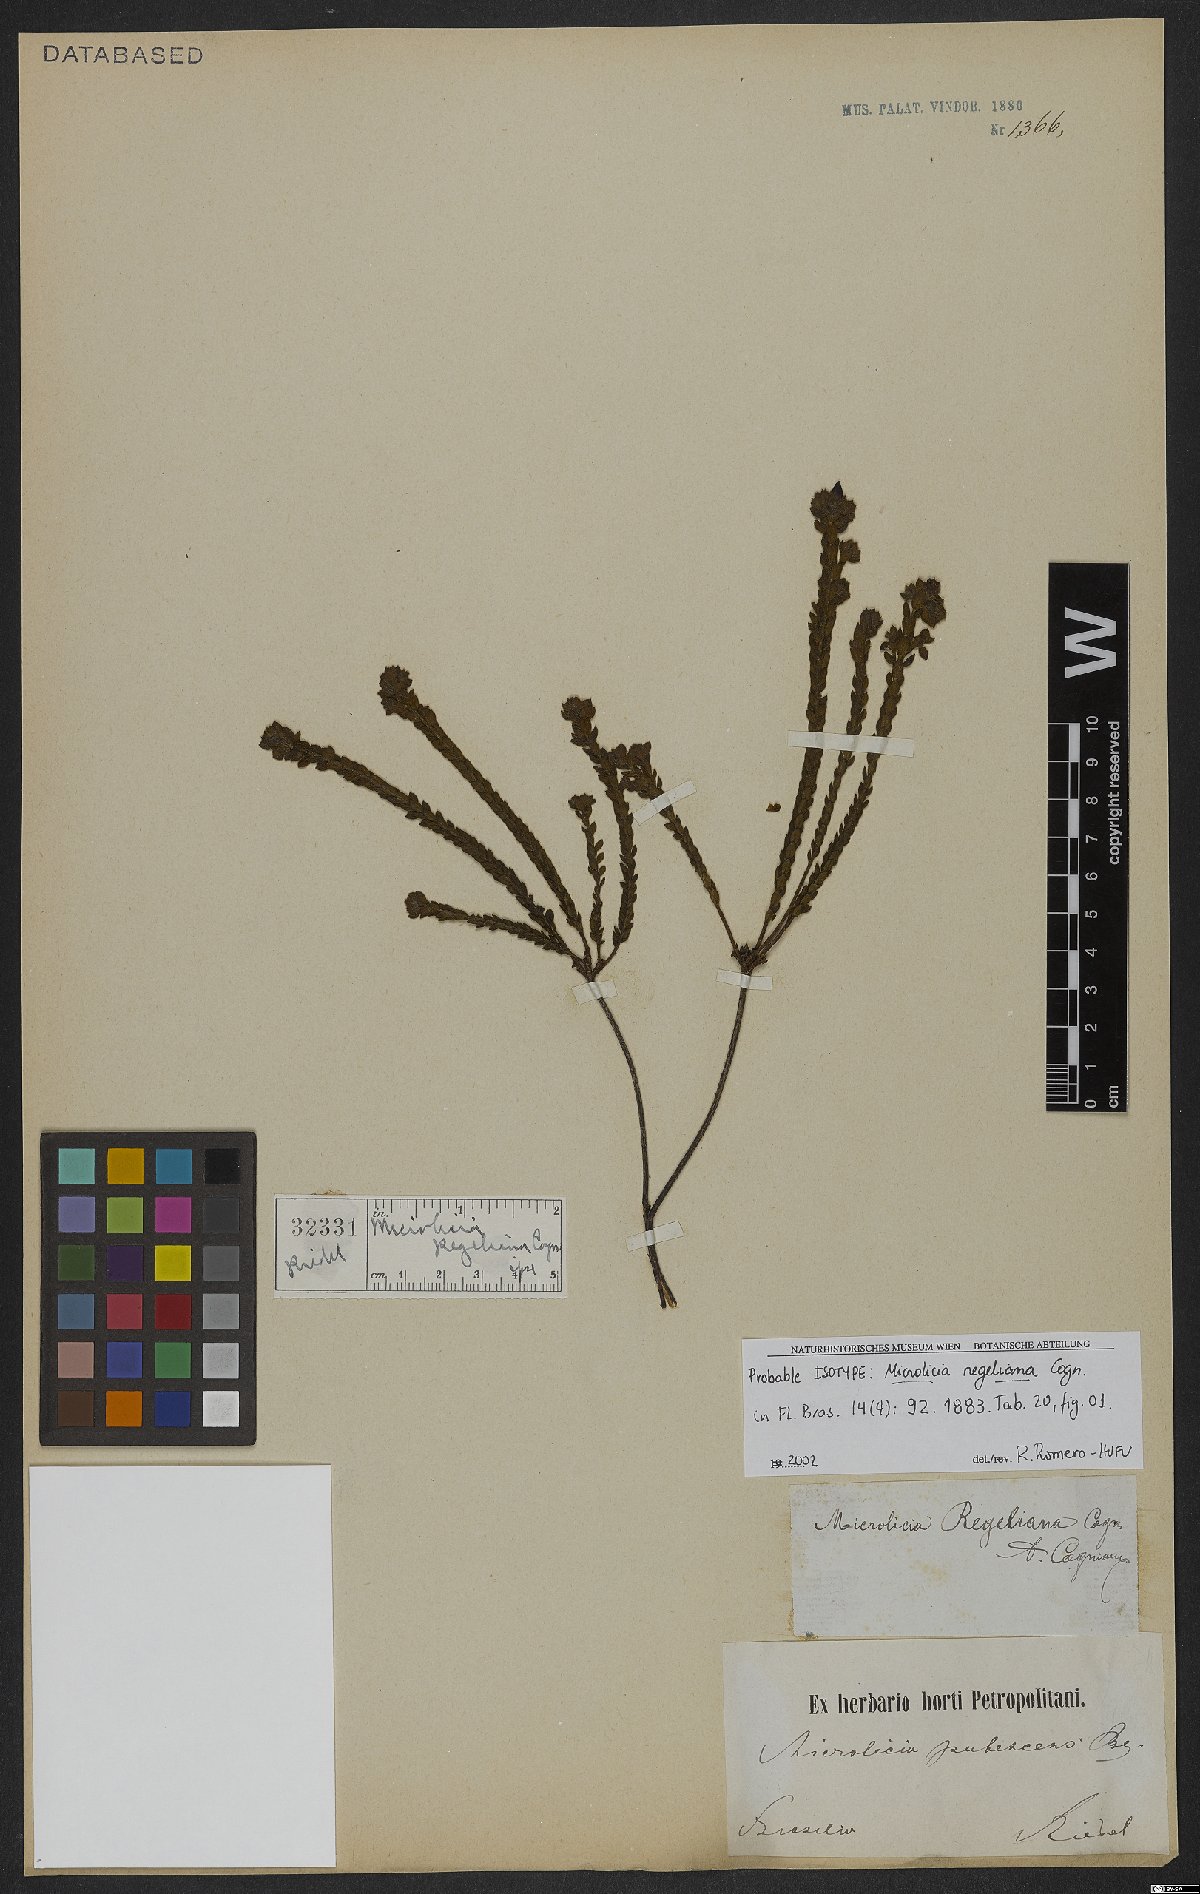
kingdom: Plantae
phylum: Tracheophyta
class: Magnoliopsida
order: Myrtales
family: Melastomataceae
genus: Microlicia
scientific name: Microlicia regeliana
